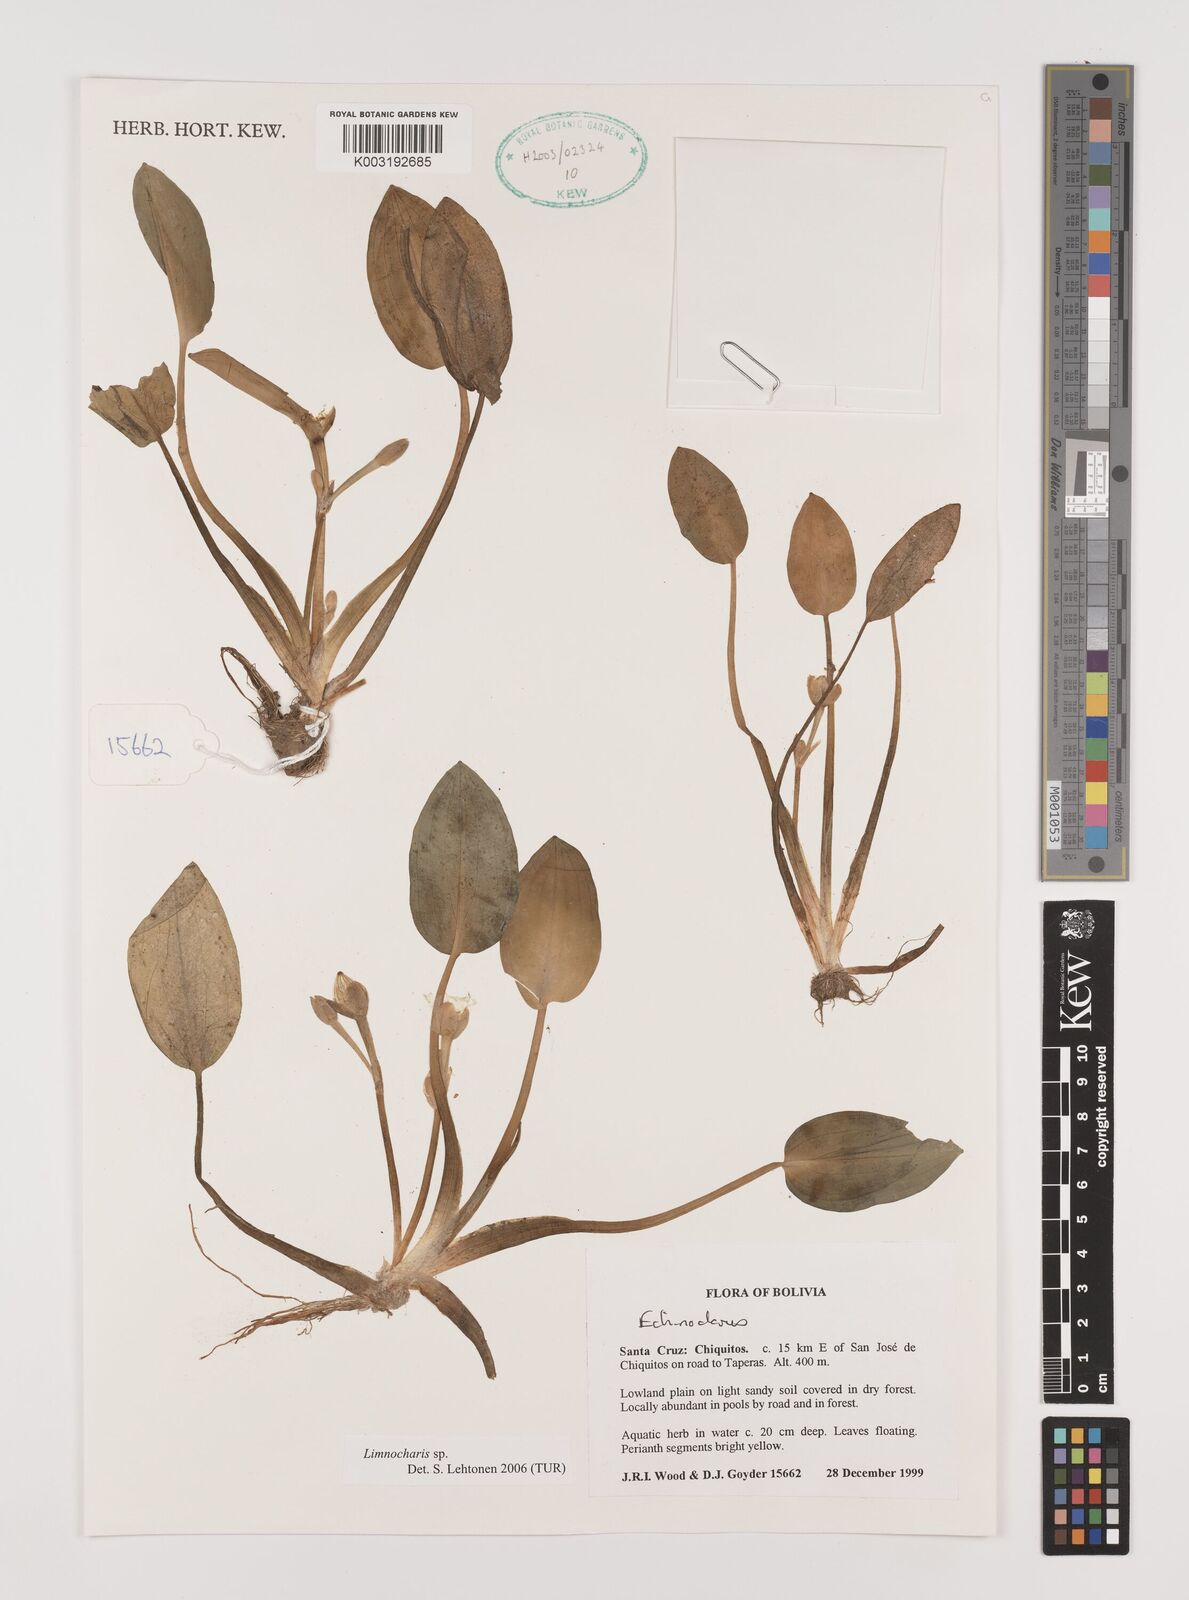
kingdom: Plantae
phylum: Tracheophyta
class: Liliopsida
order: Alismatales
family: Alismataceae
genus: Limnocharis
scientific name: Limnocharis
